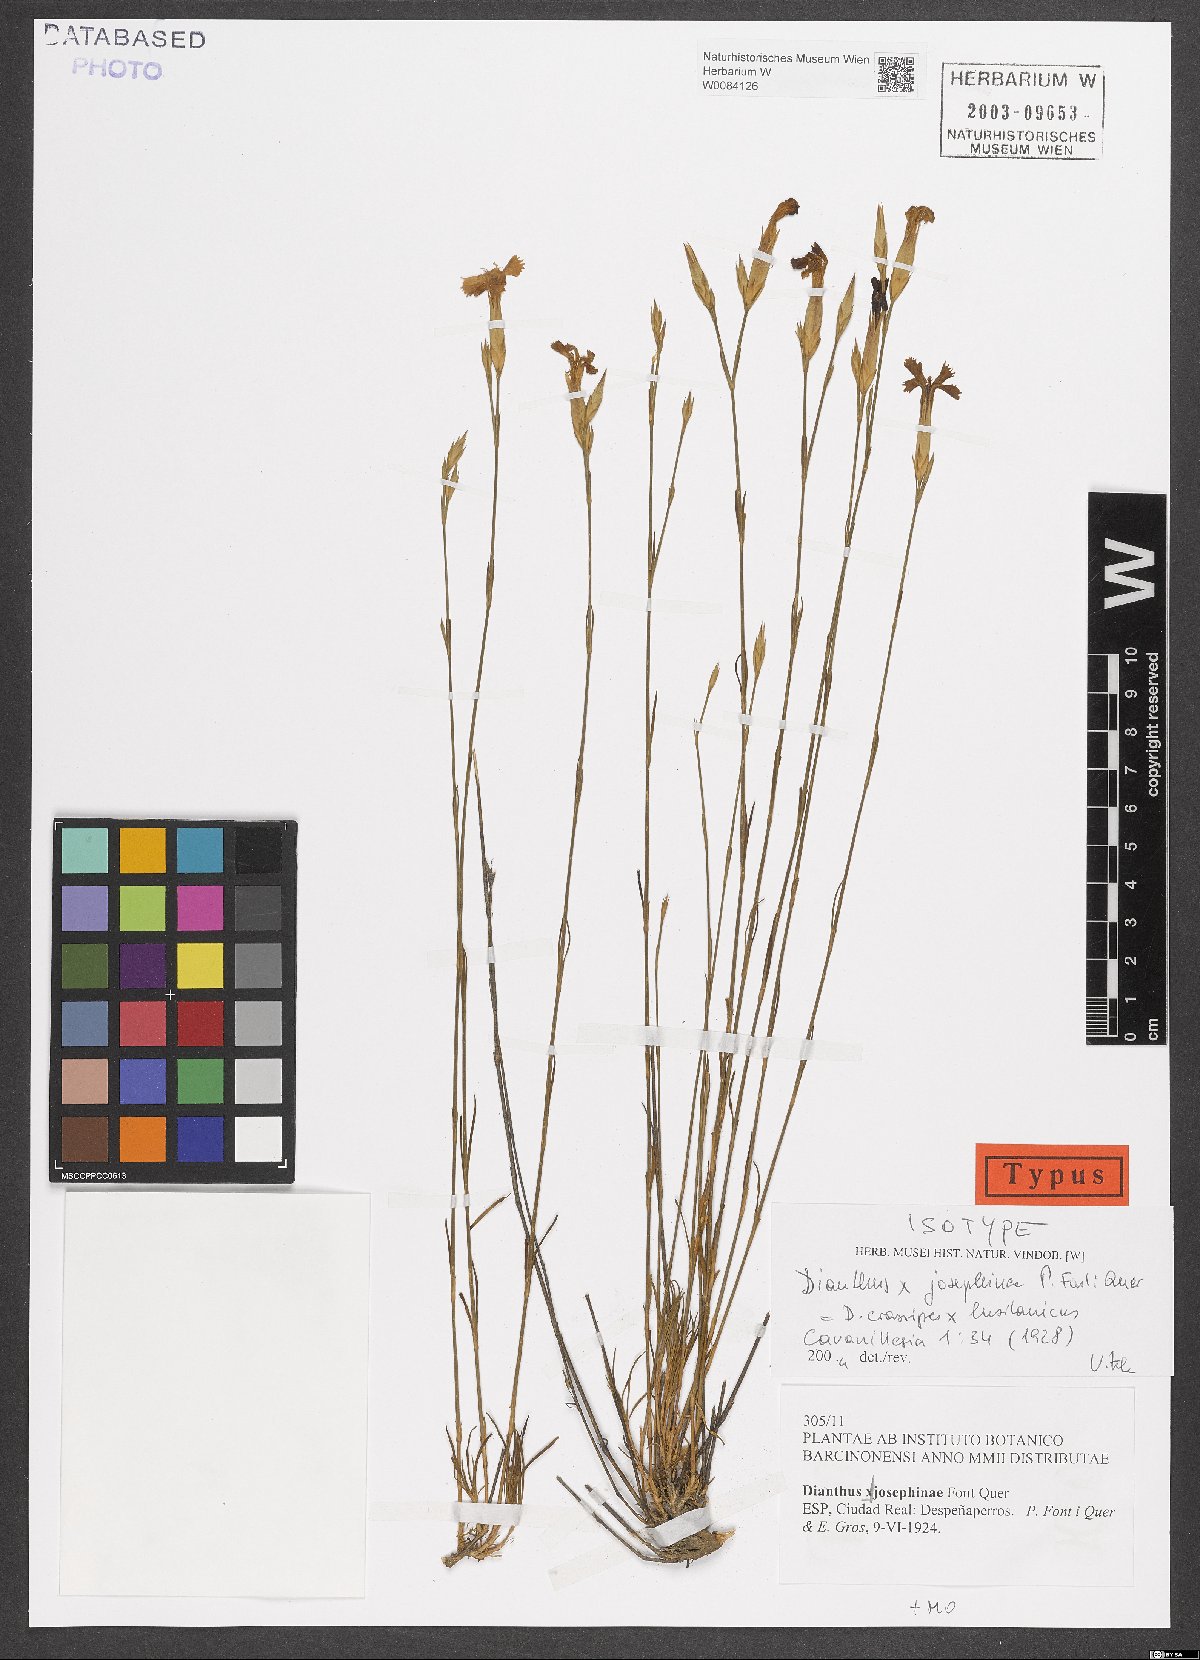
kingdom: Plantae
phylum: Tracheophyta
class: Magnoliopsida
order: Caryophyllales
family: Caryophyllaceae
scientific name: Caryophyllaceae
